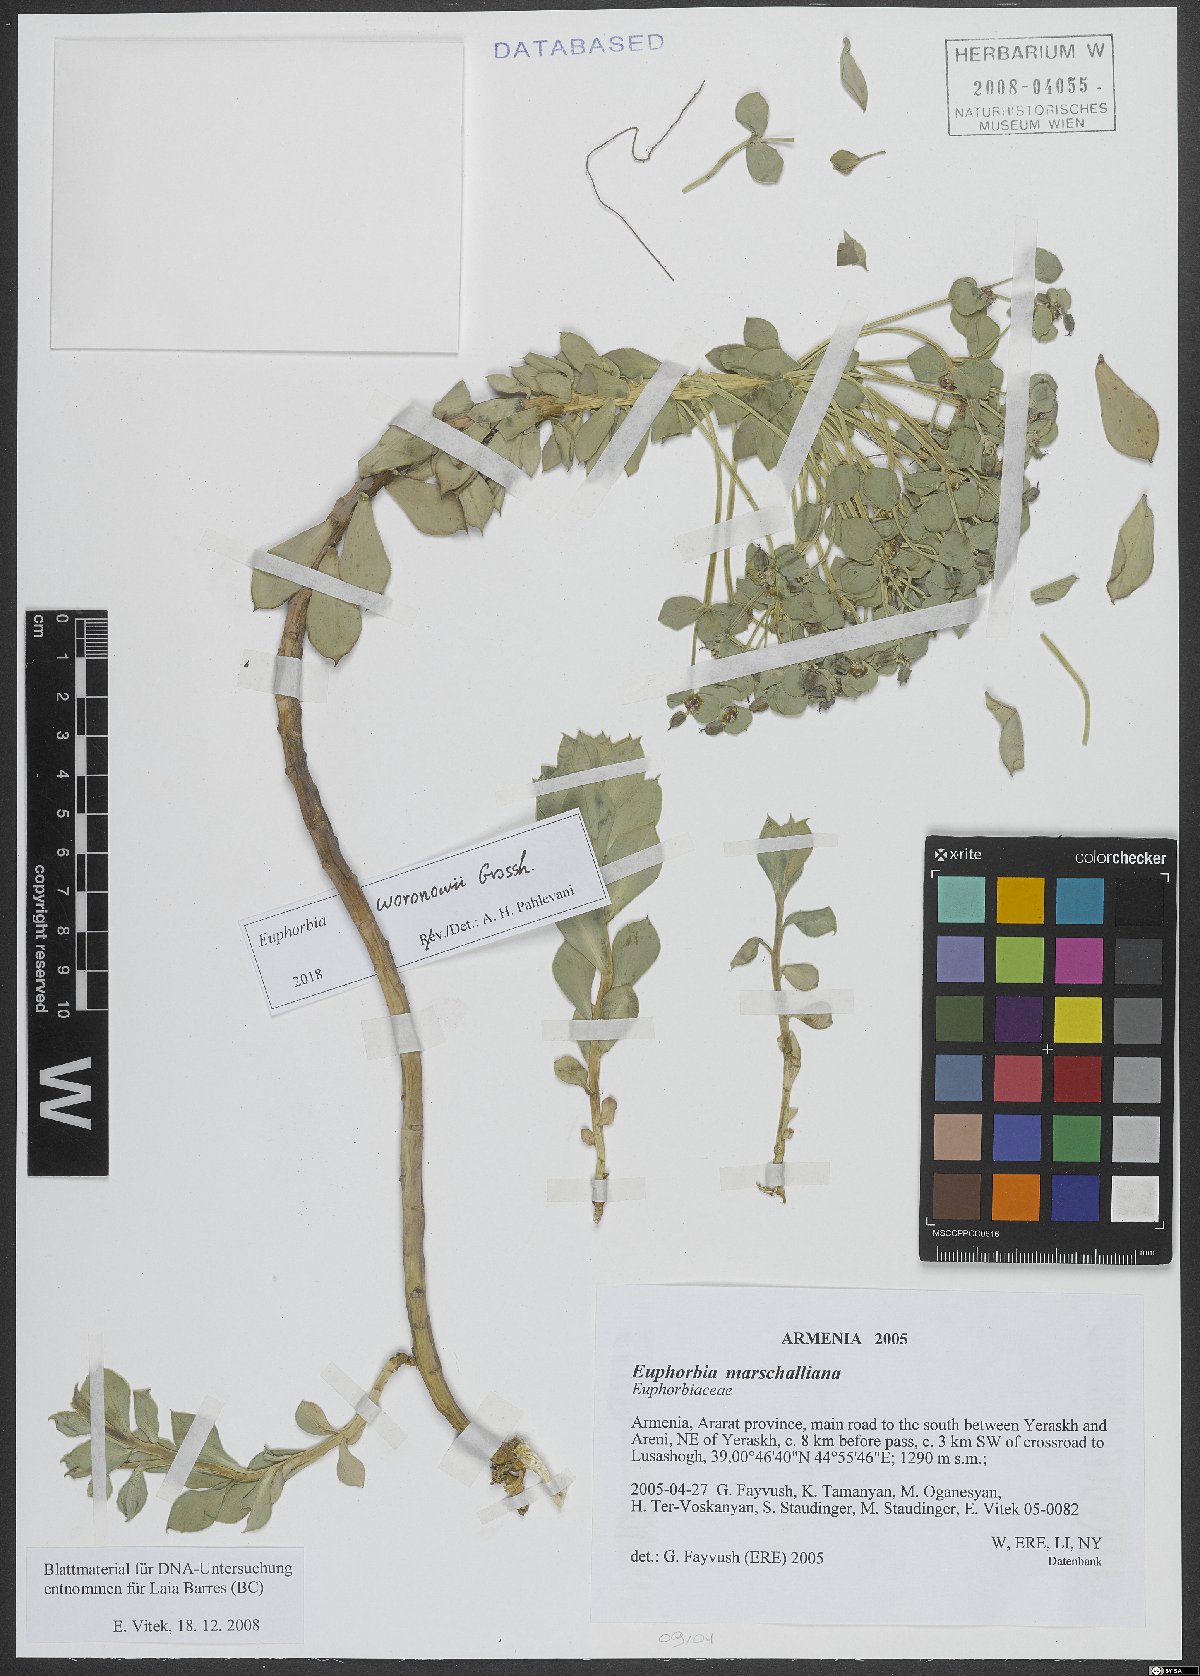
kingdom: Plantae
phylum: Tracheophyta
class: Magnoliopsida
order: Malpighiales
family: Euphorbiaceae
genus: Euphorbia
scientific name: Euphorbia marschalliana
